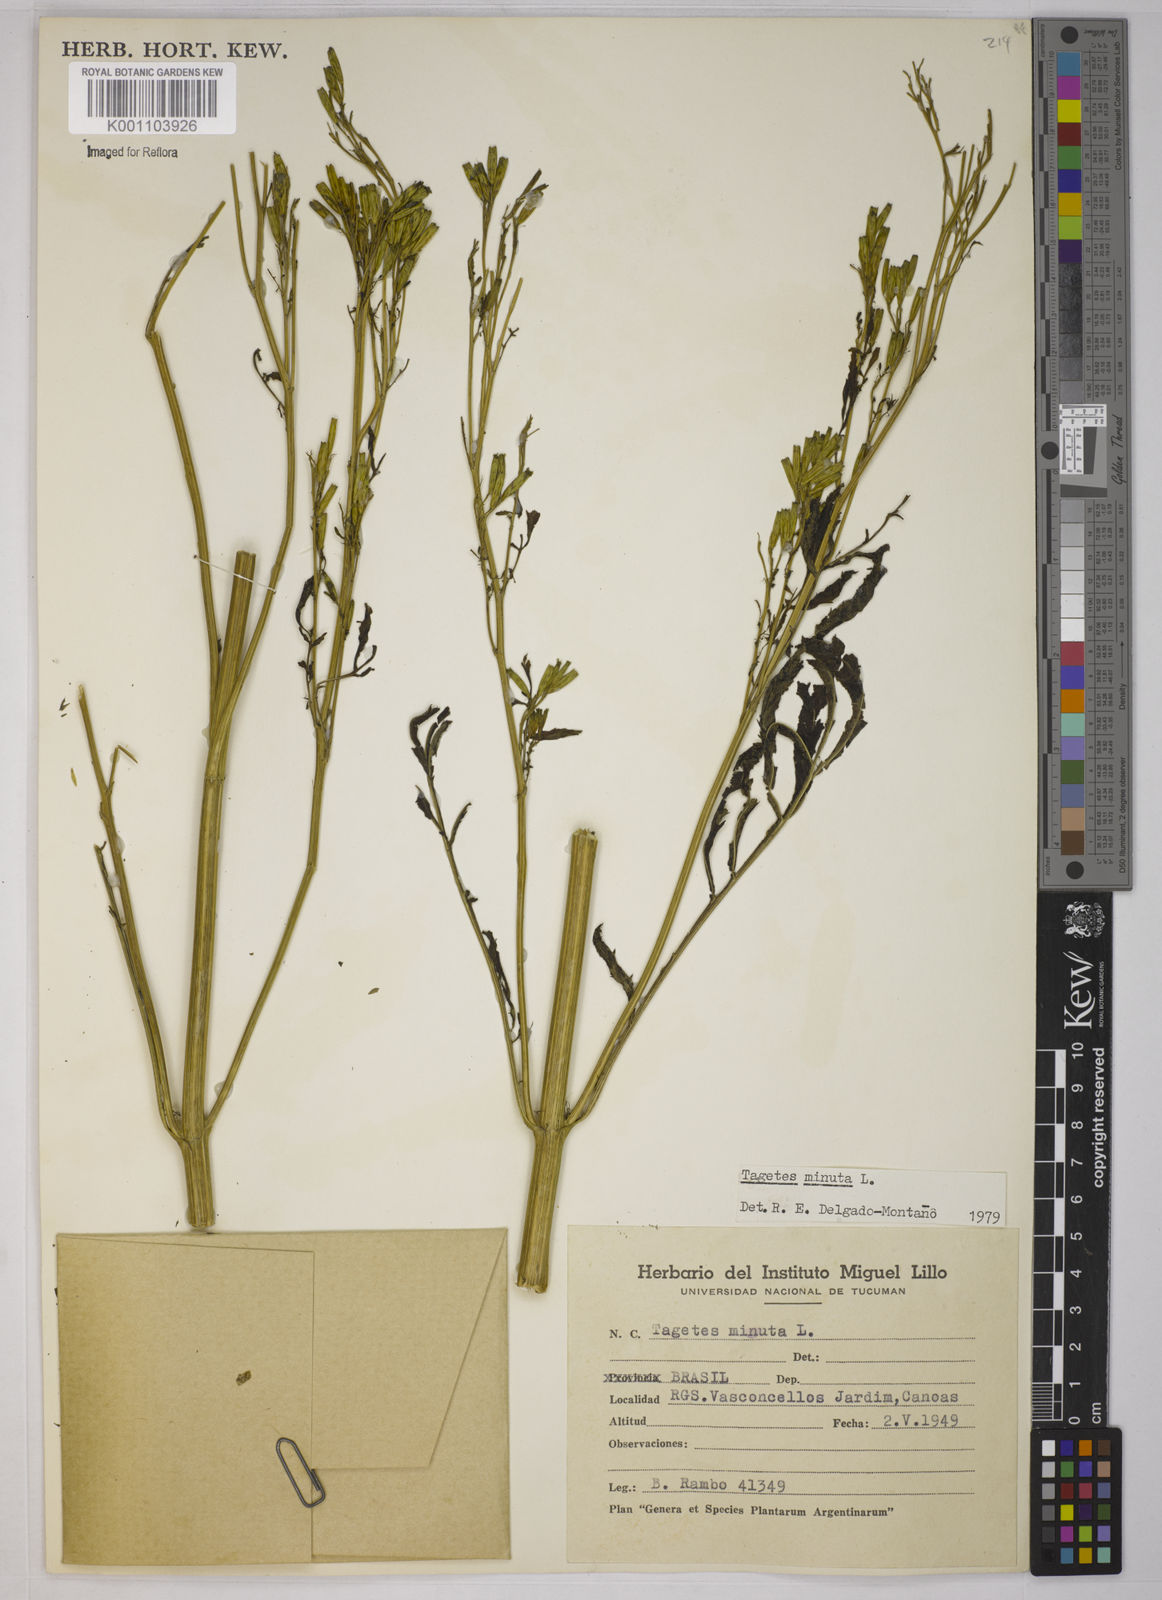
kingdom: Plantae
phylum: Tracheophyta
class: Magnoliopsida
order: Asterales
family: Asteraceae
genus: Tagetes
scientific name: Tagetes minuta
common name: Muster john henry
